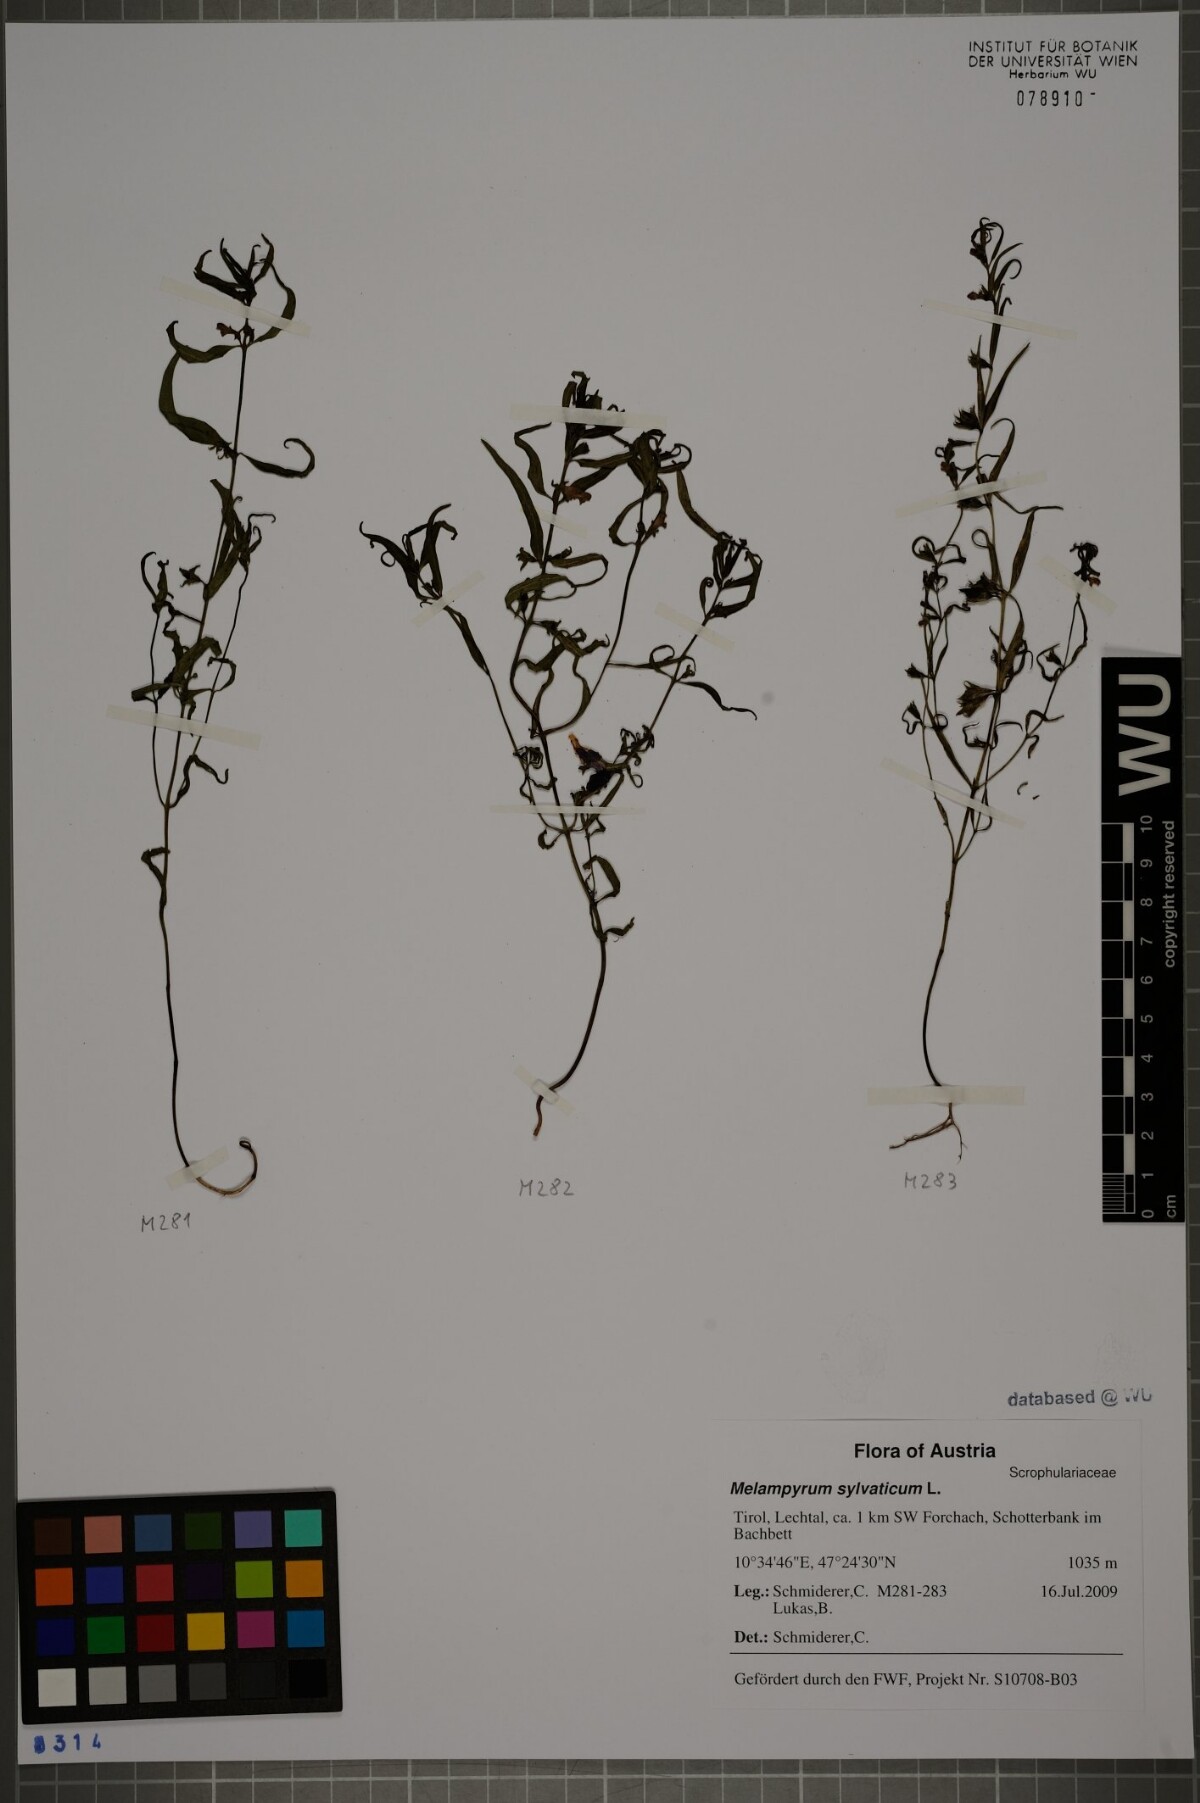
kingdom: Plantae
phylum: Tracheophyta
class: Magnoliopsida
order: Lamiales
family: Orobanchaceae
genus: Melampyrum
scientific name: Melampyrum sylvaticum
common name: Small cow-wheat
